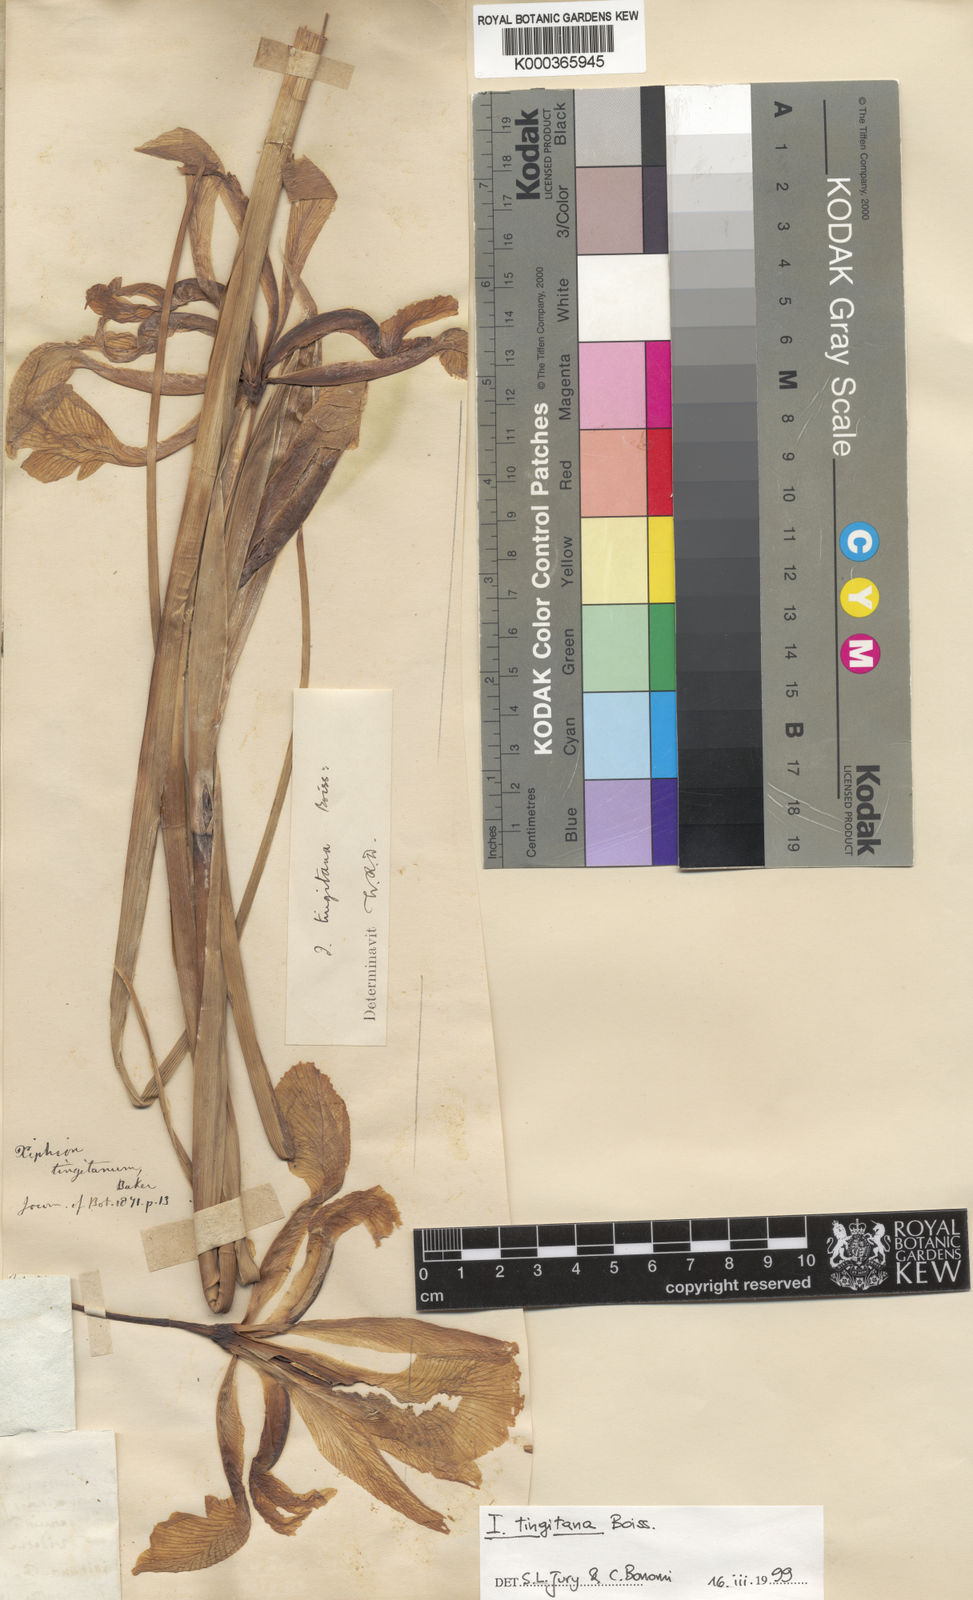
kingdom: Plantae
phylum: Tracheophyta
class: Liliopsida
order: Asparagales
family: Iridaceae
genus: Iris
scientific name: Iris tingitana
